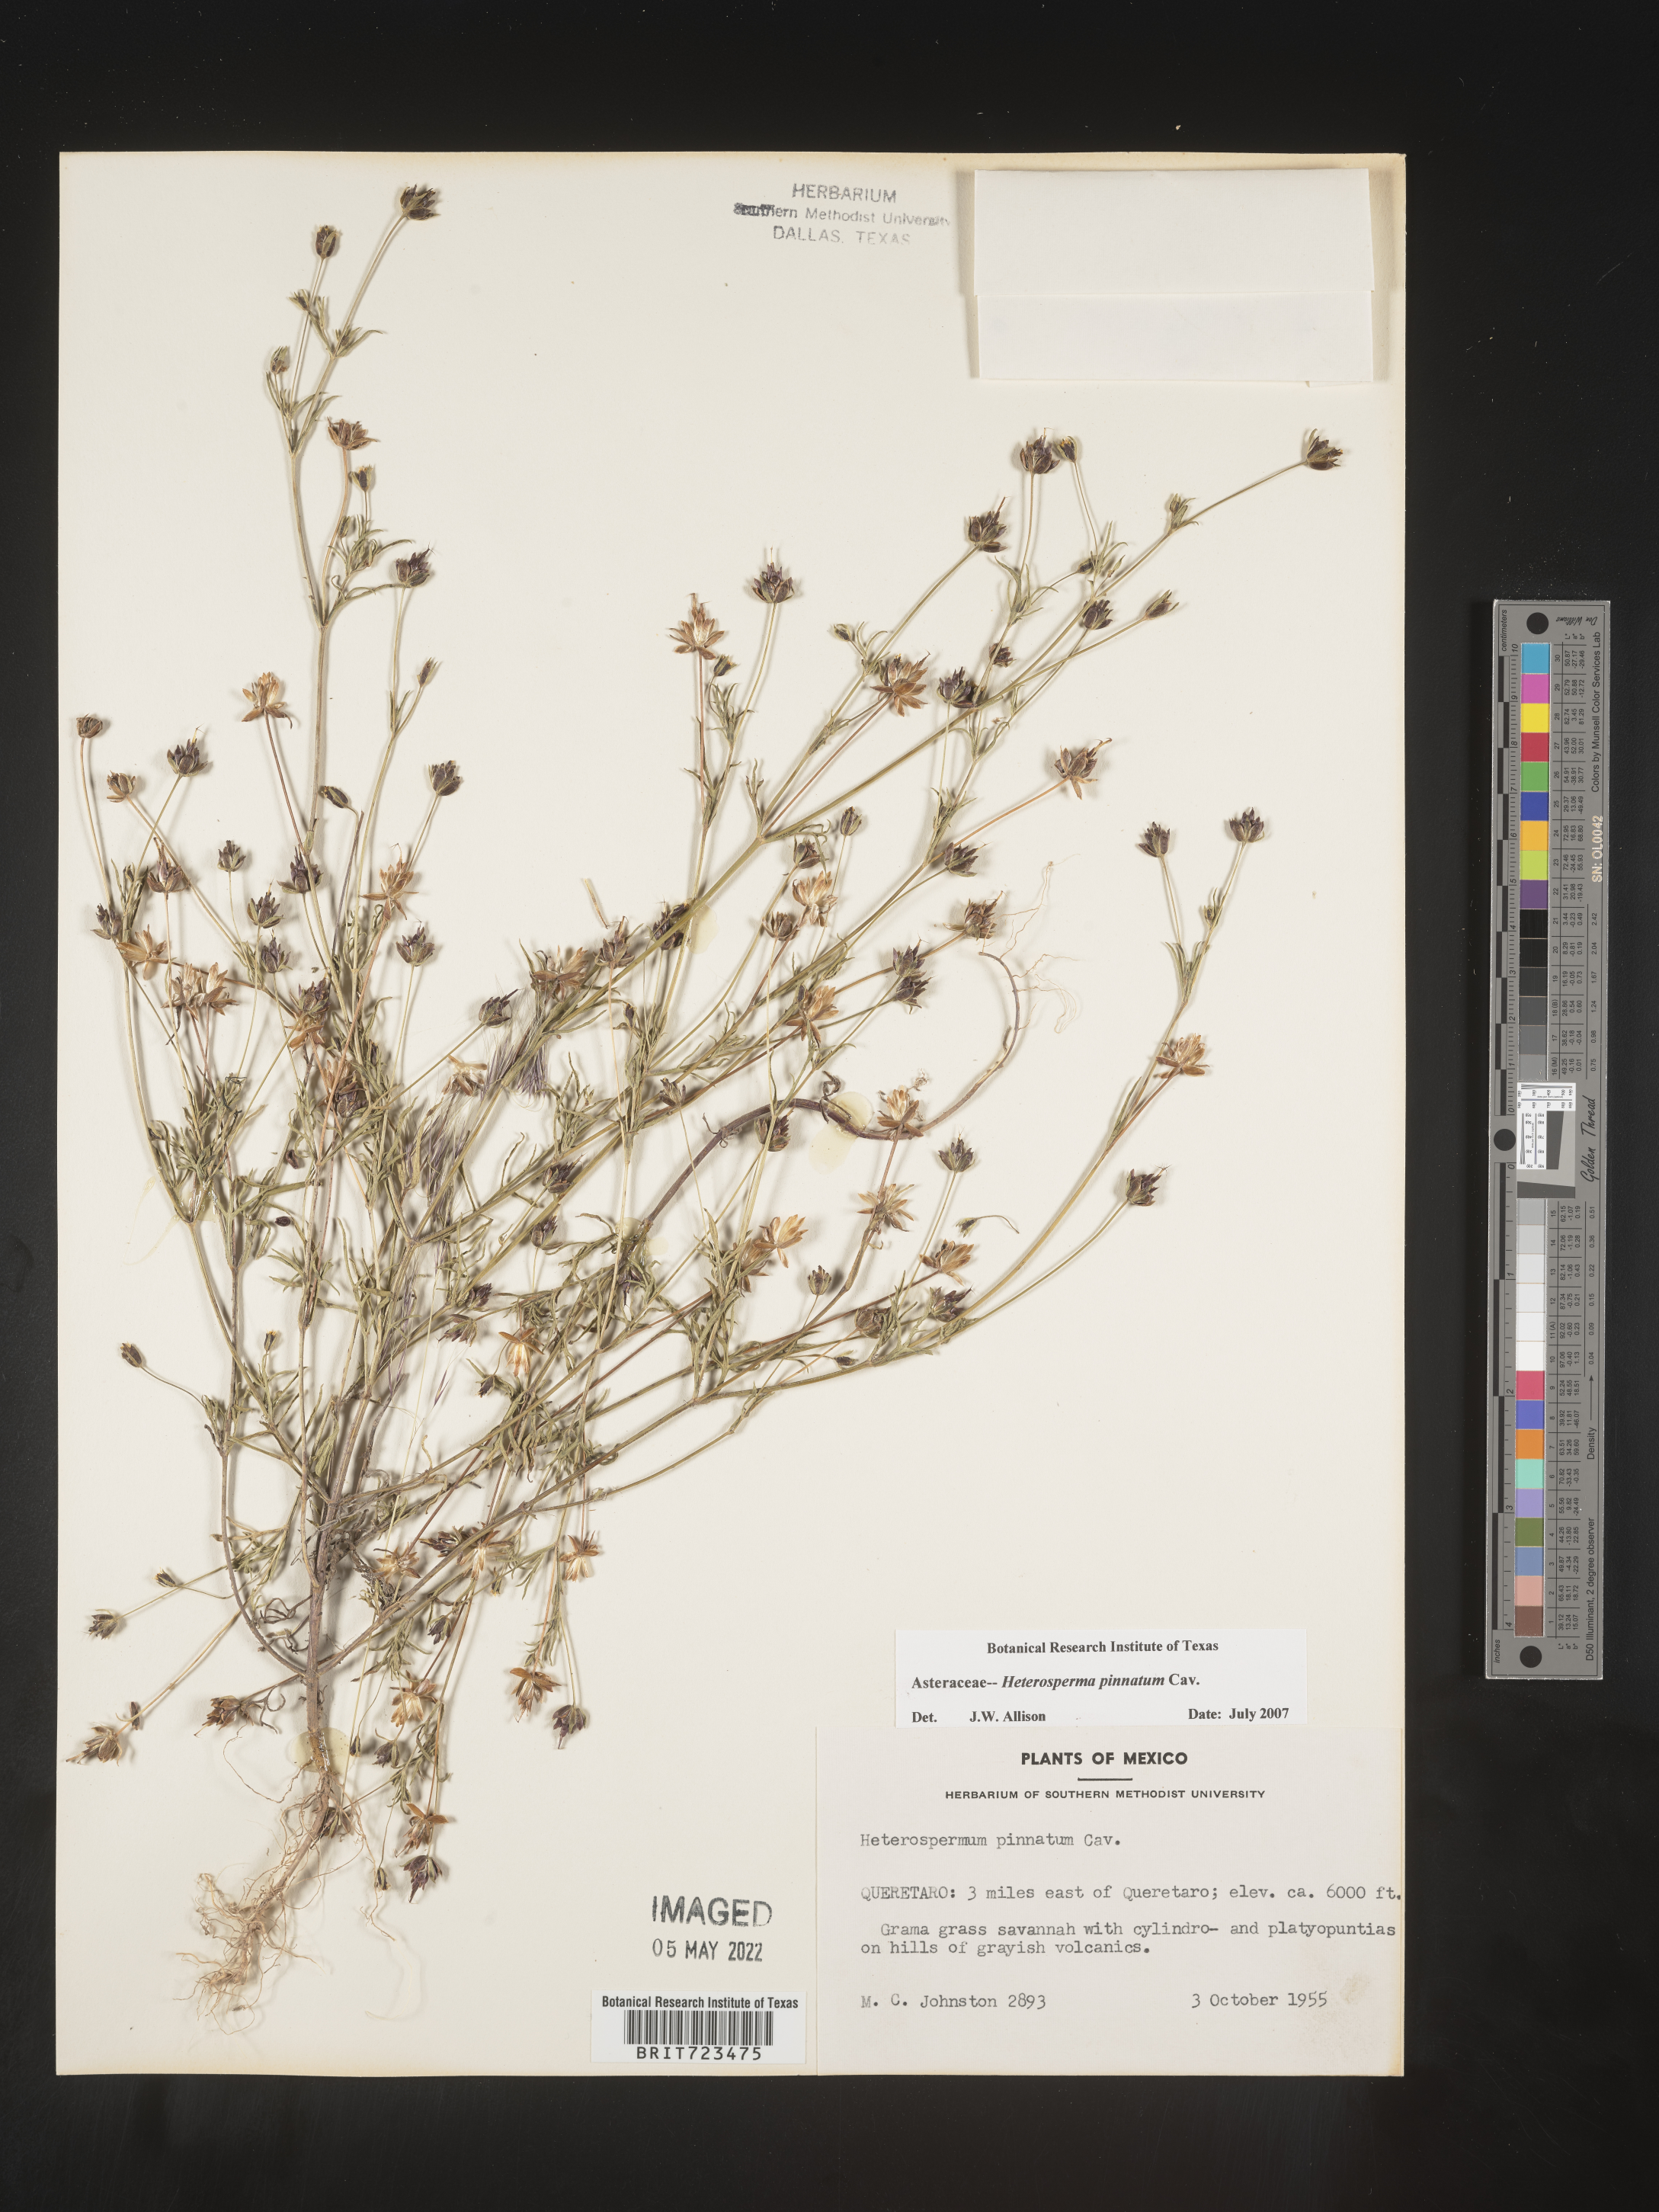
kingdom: Plantae
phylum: Tracheophyta
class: Magnoliopsida
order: Asterales
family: Asteraceae
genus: Heterosperma
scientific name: Heterosperma
